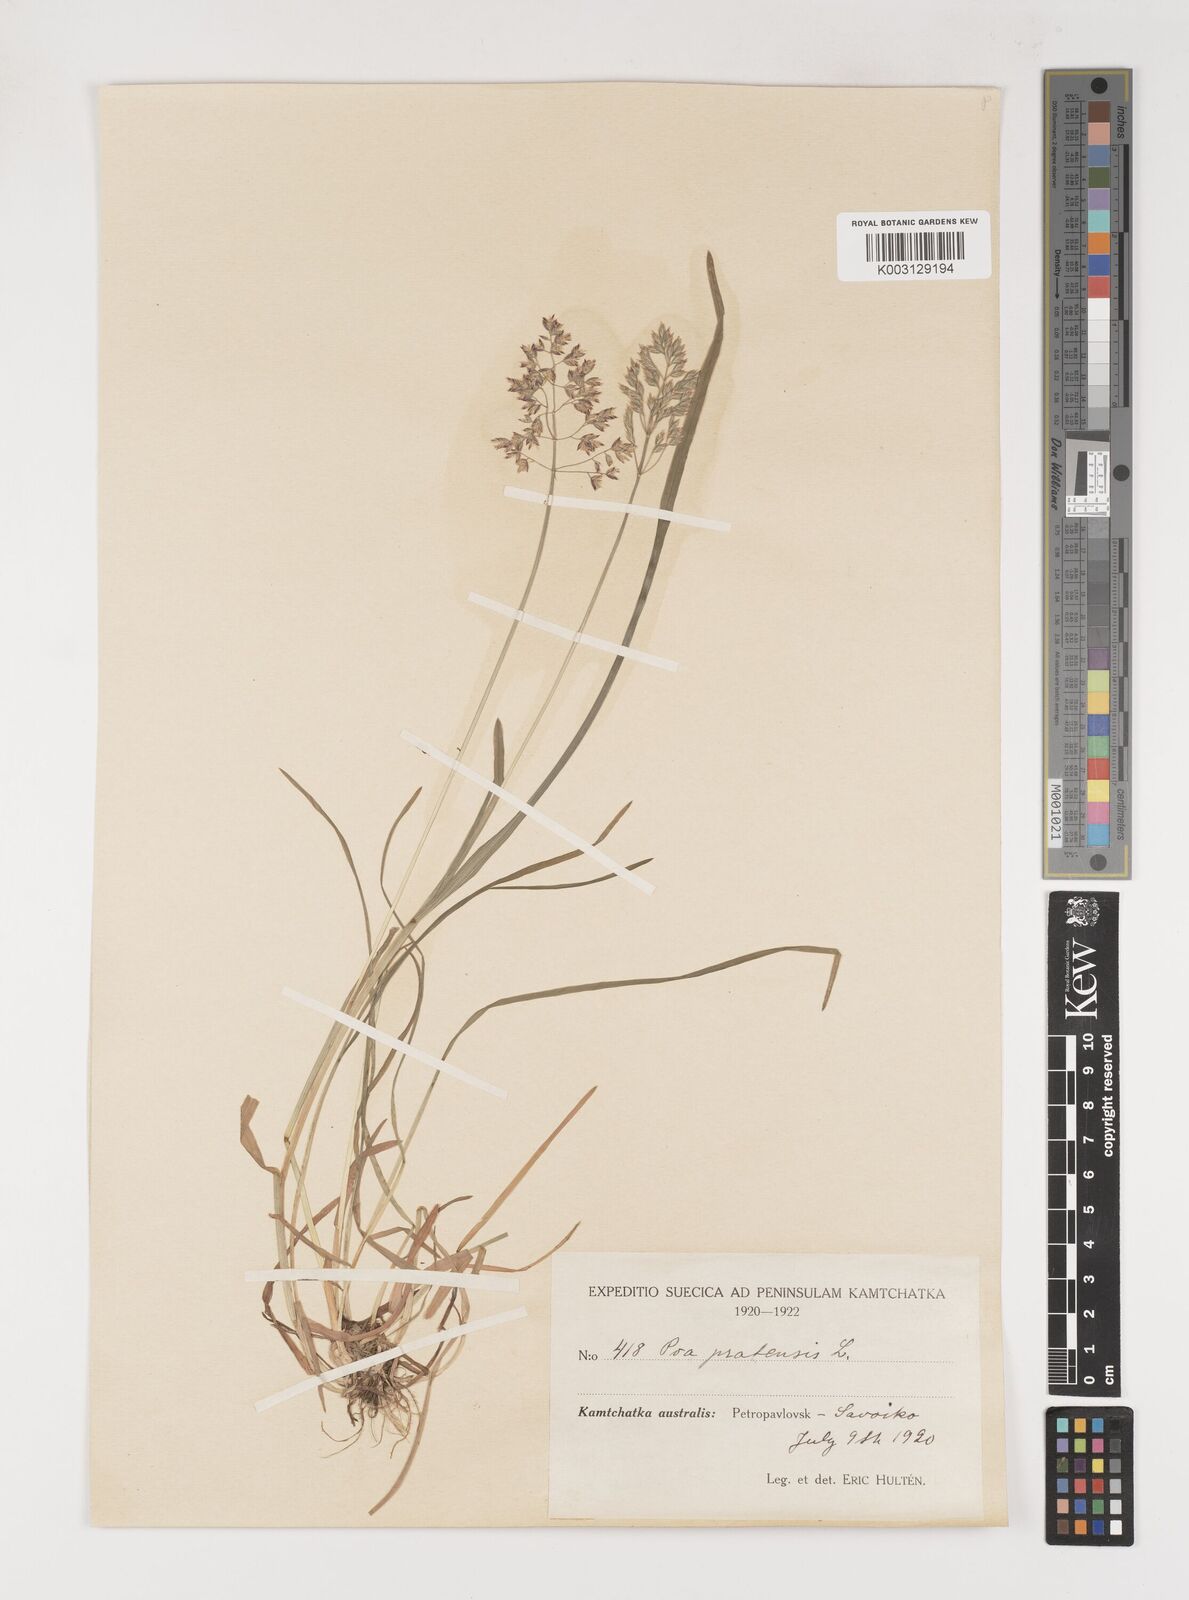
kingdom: Plantae
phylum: Tracheophyta
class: Liliopsida
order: Poales
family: Poaceae
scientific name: Poaceae
